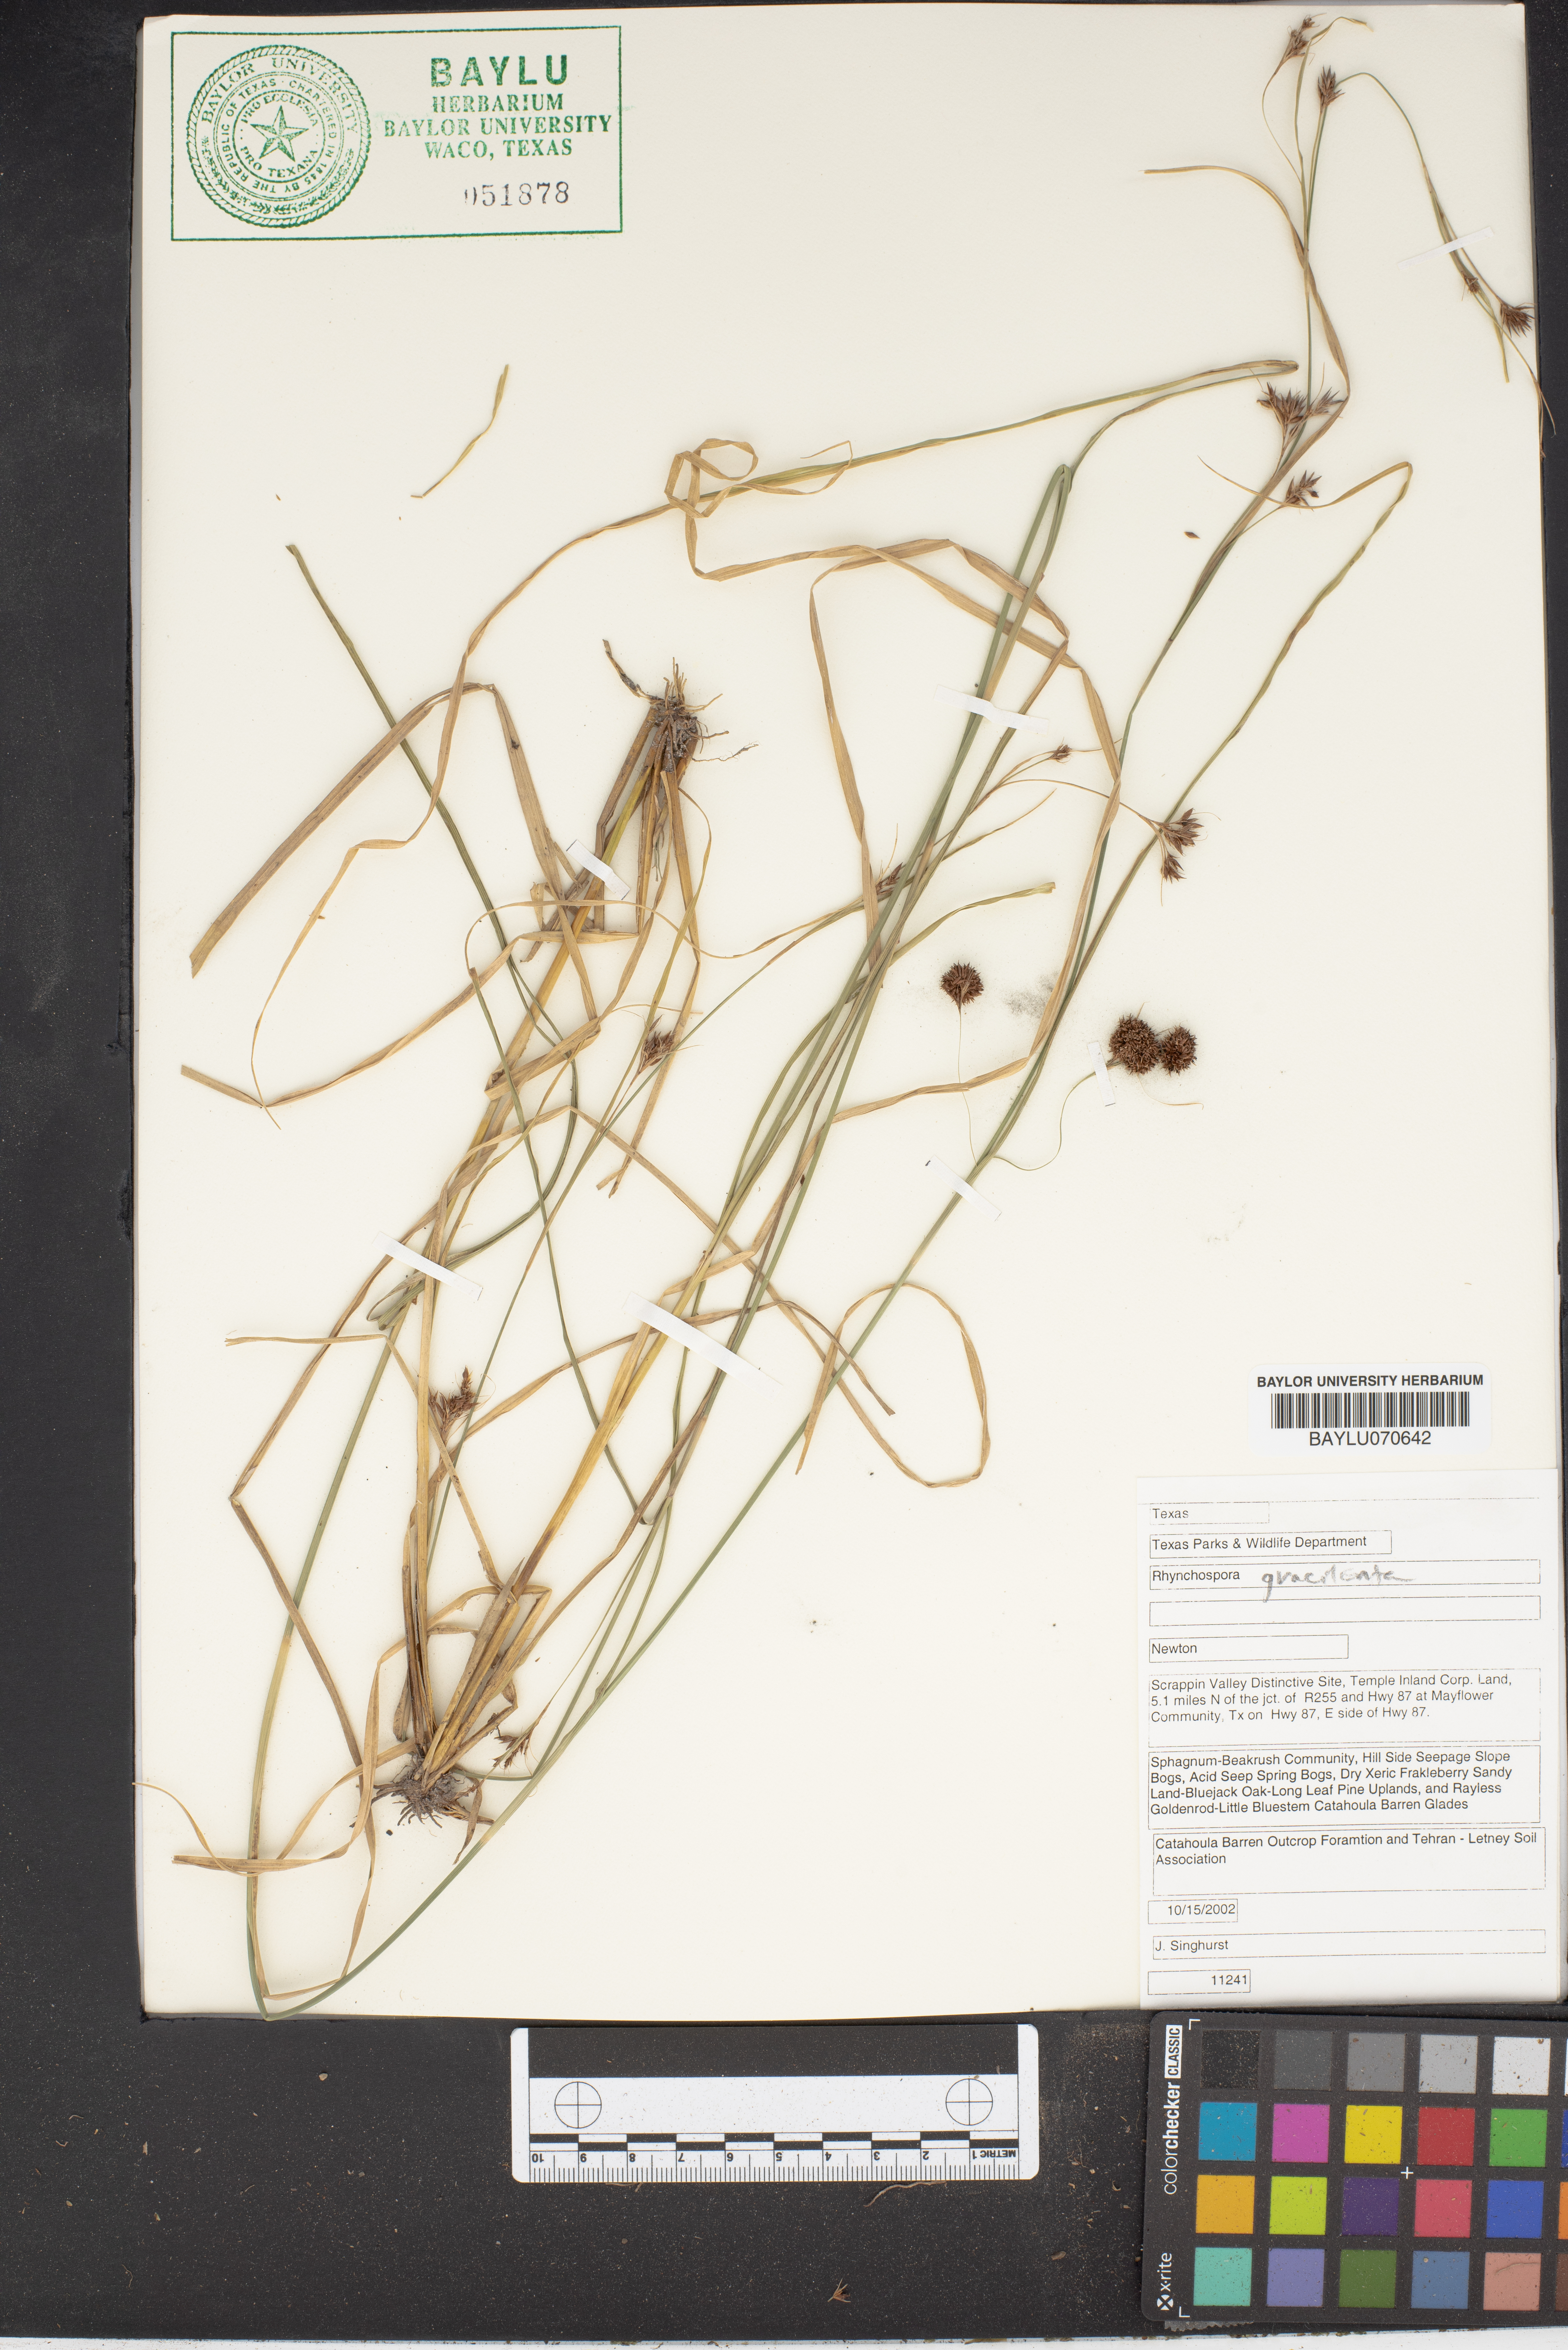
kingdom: Plantae
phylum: Tracheophyta
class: Liliopsida
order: Poales
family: Cyperaceae
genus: Rhynchospora
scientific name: Rhynchospora gracilenta
